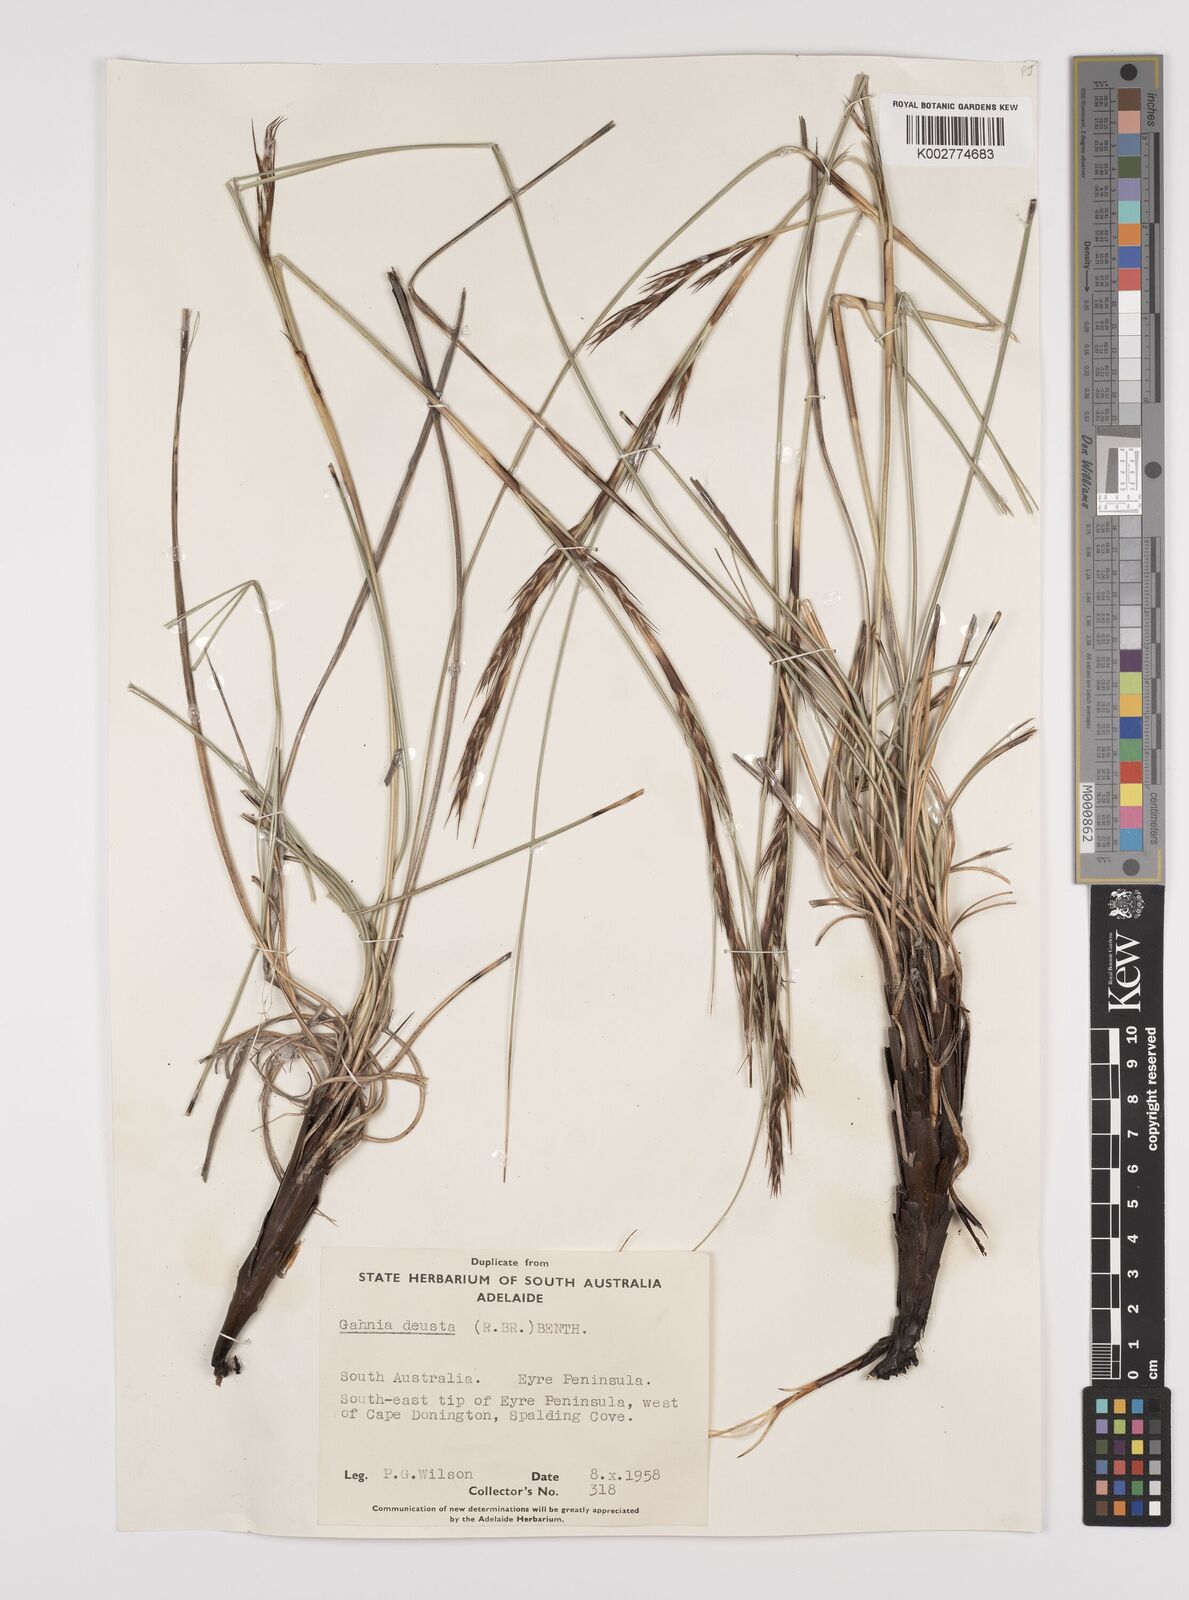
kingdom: Plantae
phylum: Tracheophyta
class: Liliopsida
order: Poales
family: Cyperaceae
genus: Gahnia
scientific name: Gahnia deusta
